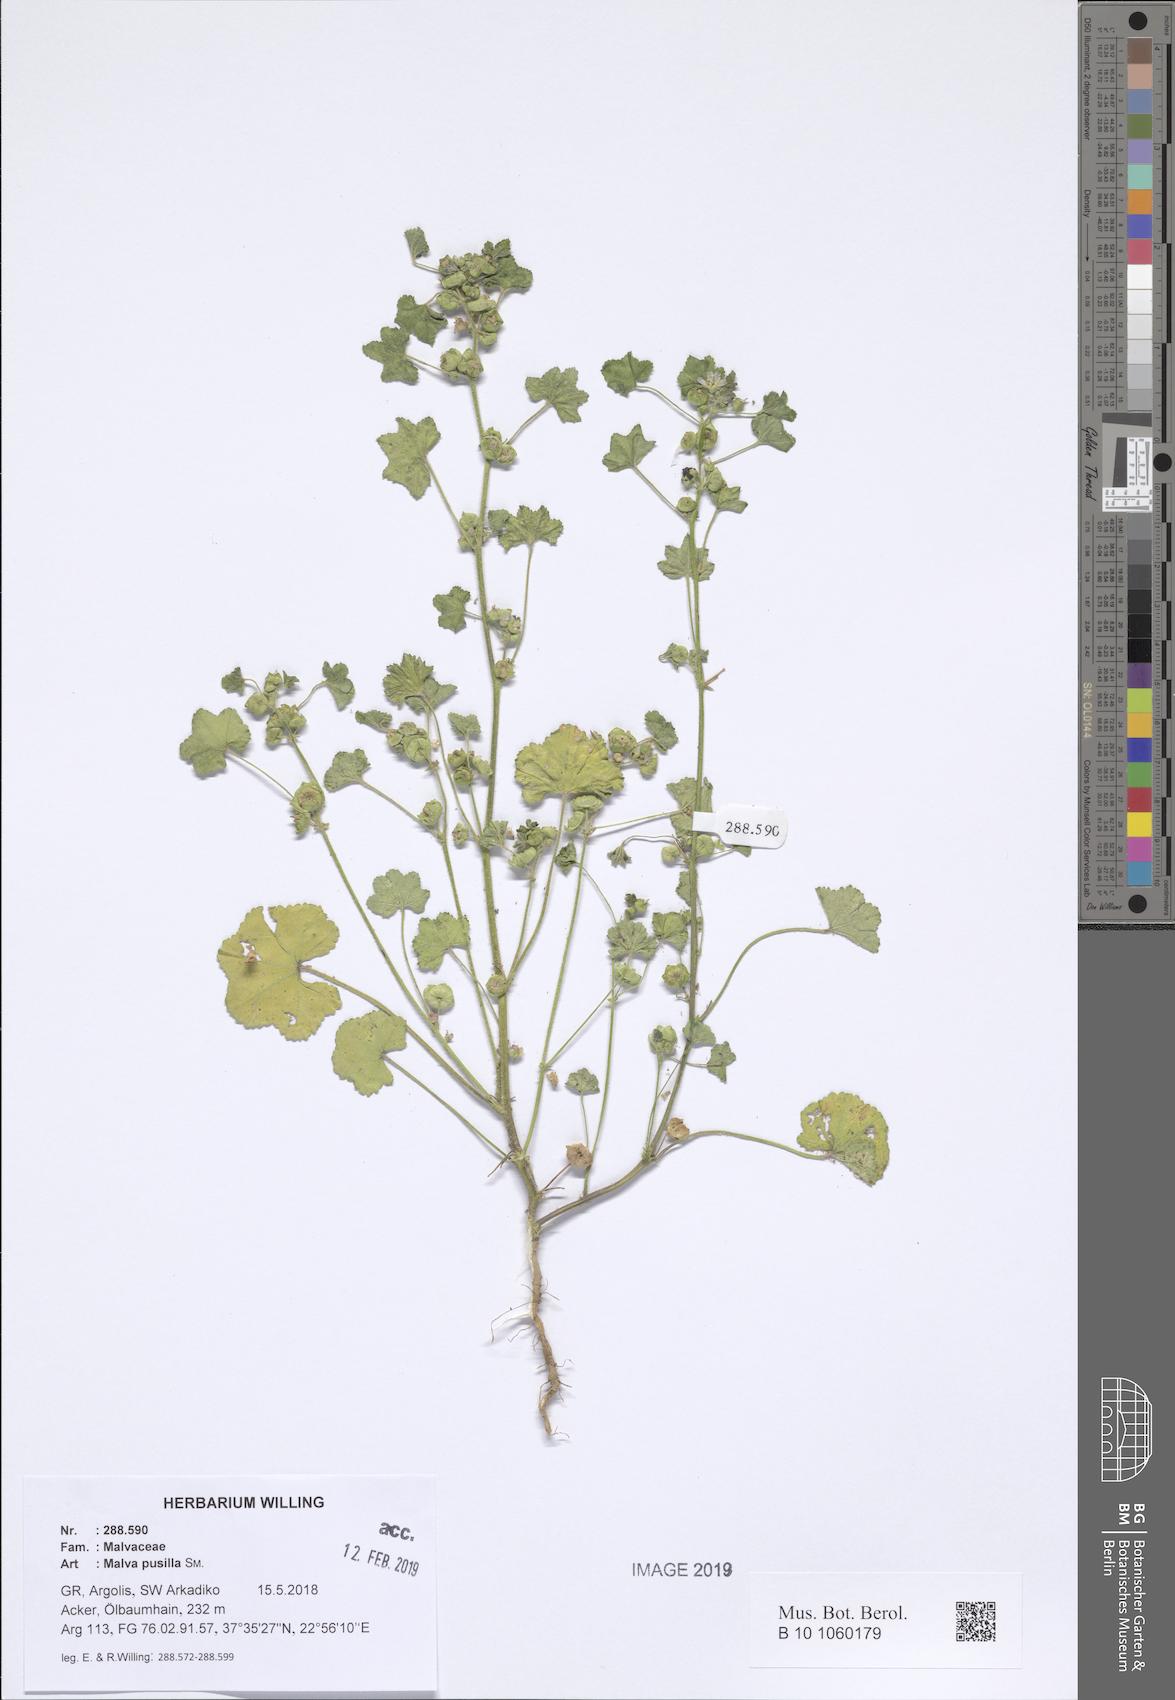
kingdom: Plantae
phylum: Tracheophyta
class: Magnoliopsida
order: Malvales
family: Malvaceae
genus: Malva
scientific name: Malva parviflora
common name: Least mallow
